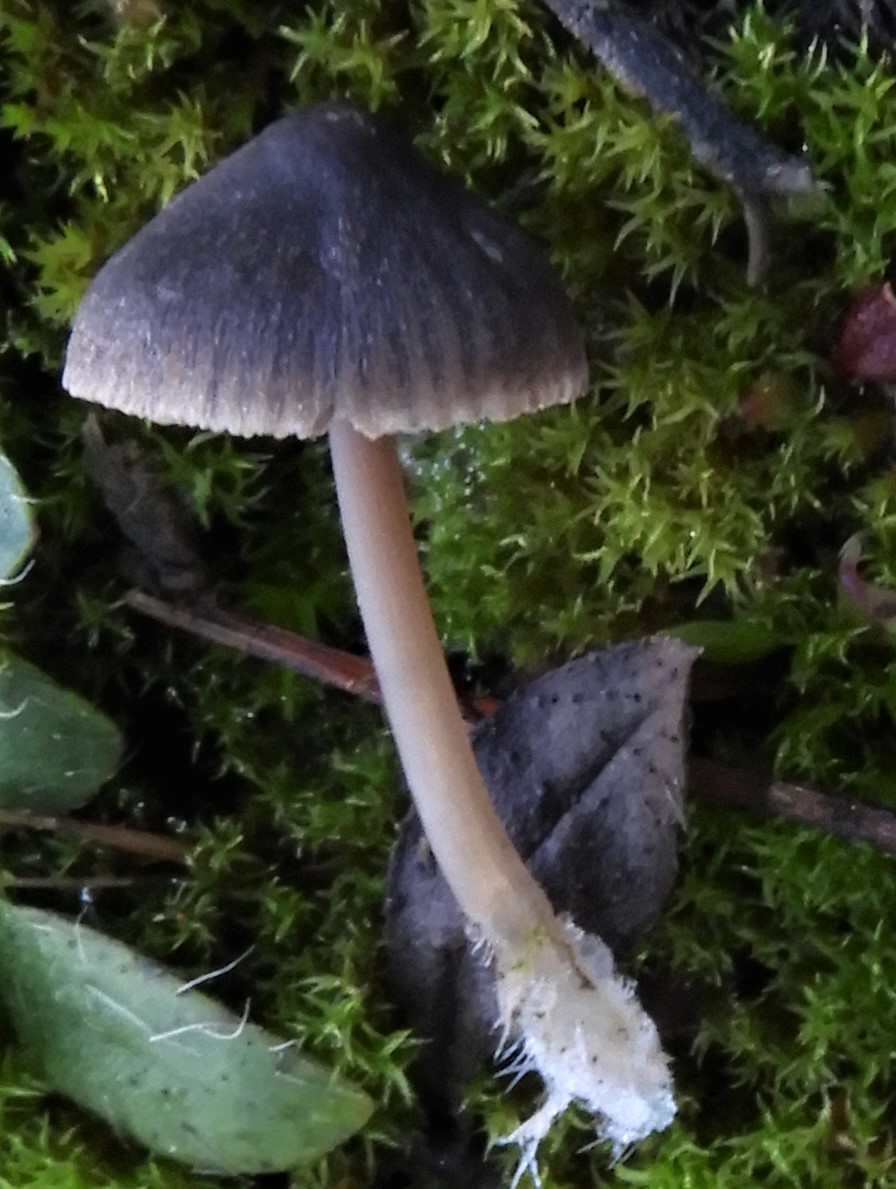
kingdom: Fungi
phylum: Basidiomycota
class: Agaricomycetes
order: Agaricales
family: Mycenaceae
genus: Mycena
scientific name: Mycena aetites
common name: plæne-huesvamp
